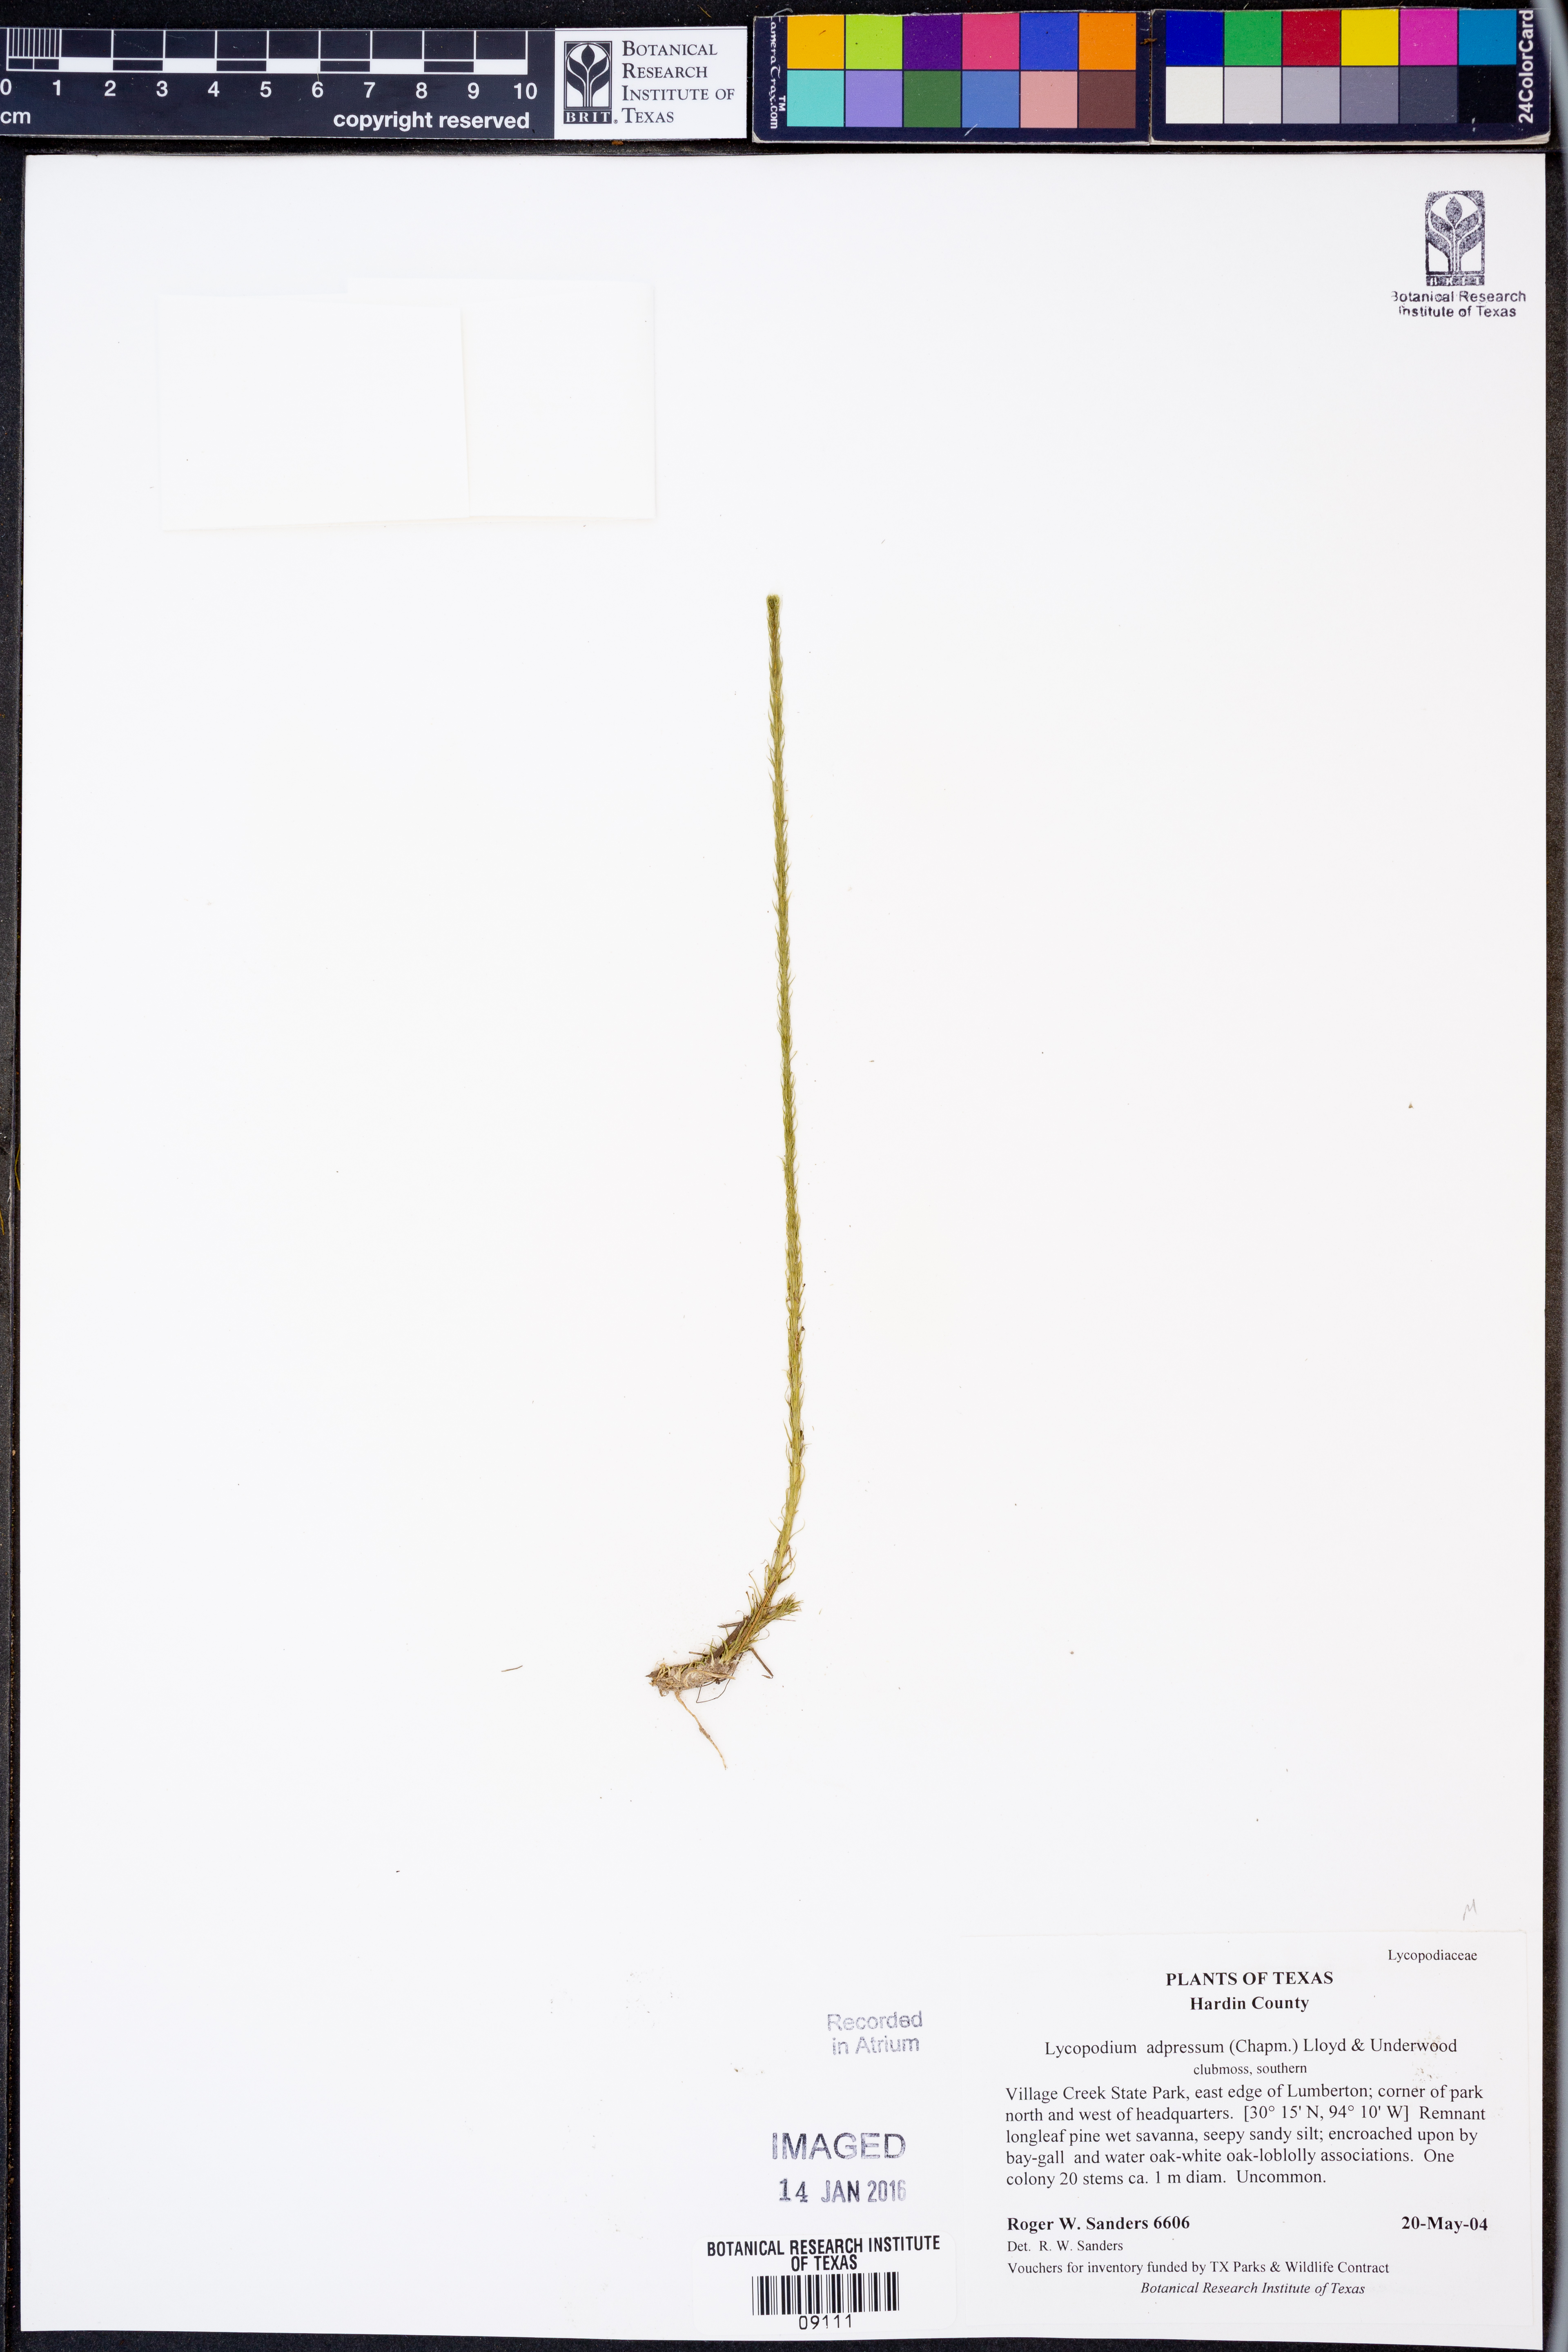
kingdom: Plantae
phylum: Tracheophyta
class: Lycopodiopsida
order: Lycopodiales
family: Lycopodiaceae
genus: Lycopodiella
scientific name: Lycopodiella appressa
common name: Appressed bog clubmoss
